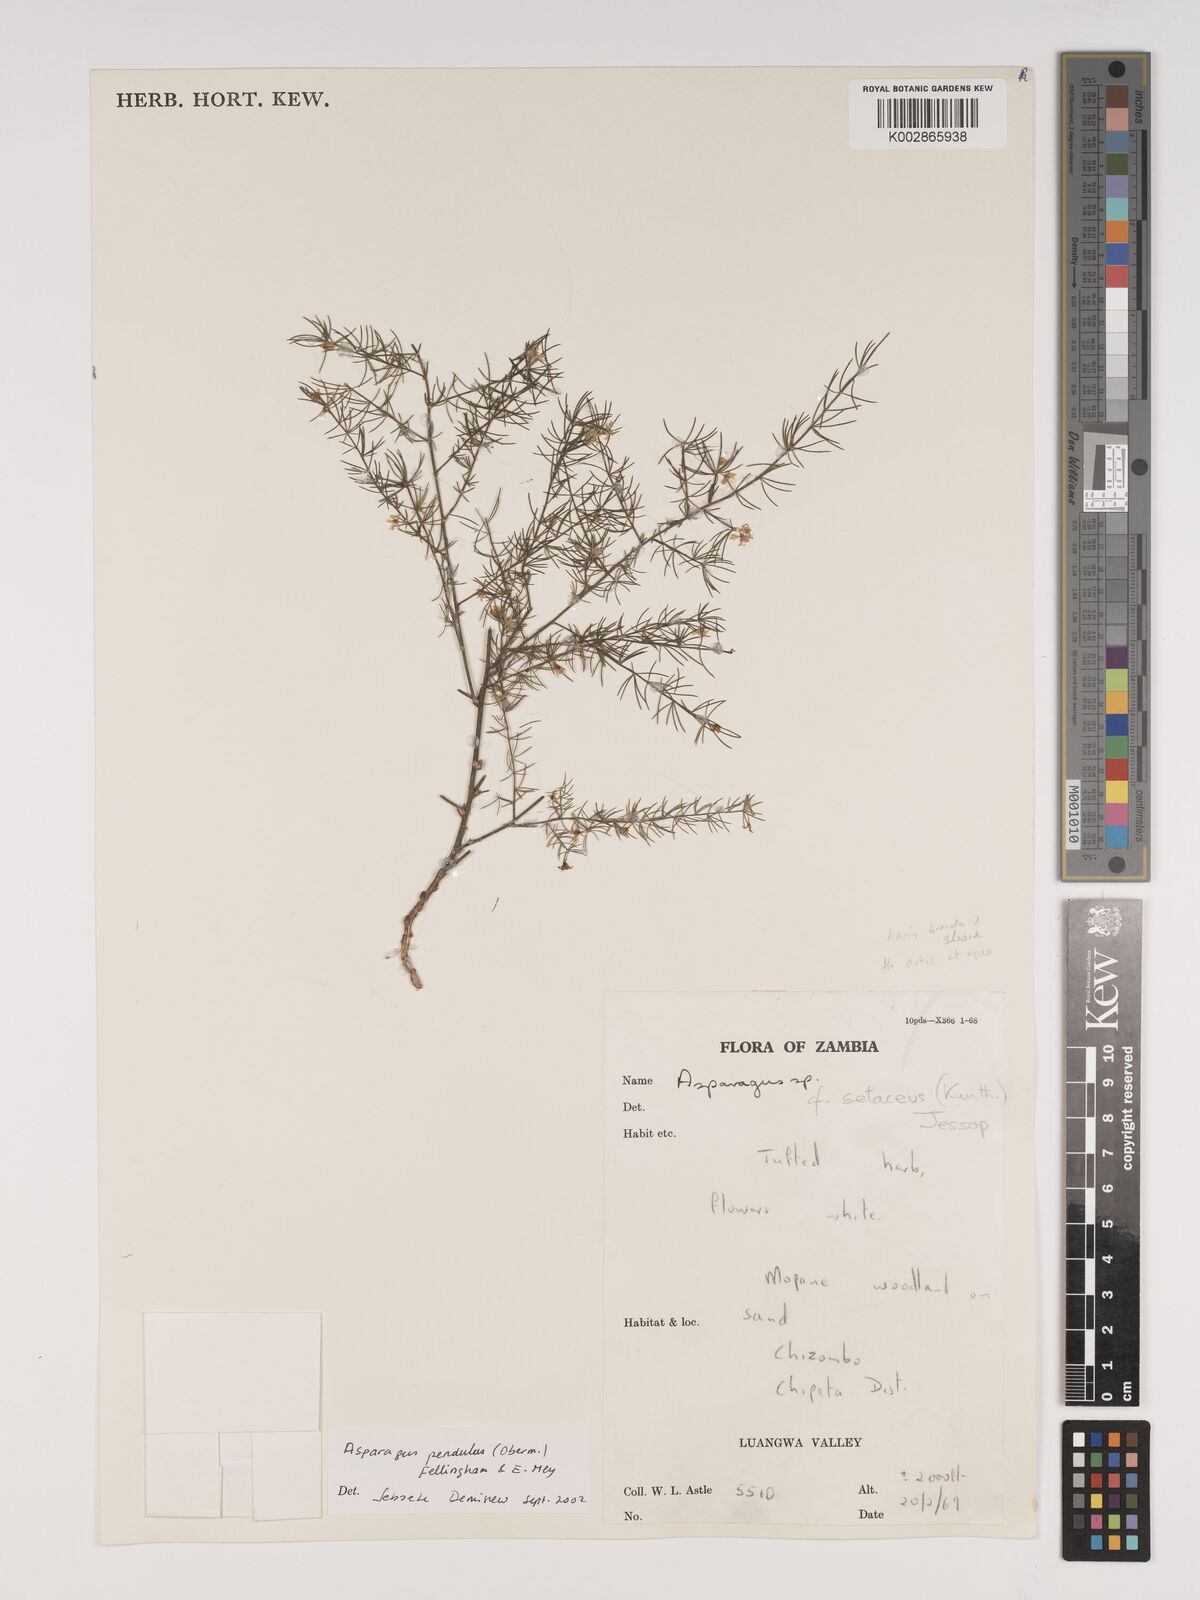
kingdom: Plantae
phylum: Tracheophyta
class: Liliopsida
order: Asparagales
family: Asparagaceae
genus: Asparagus
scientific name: Asparagus pendulus
